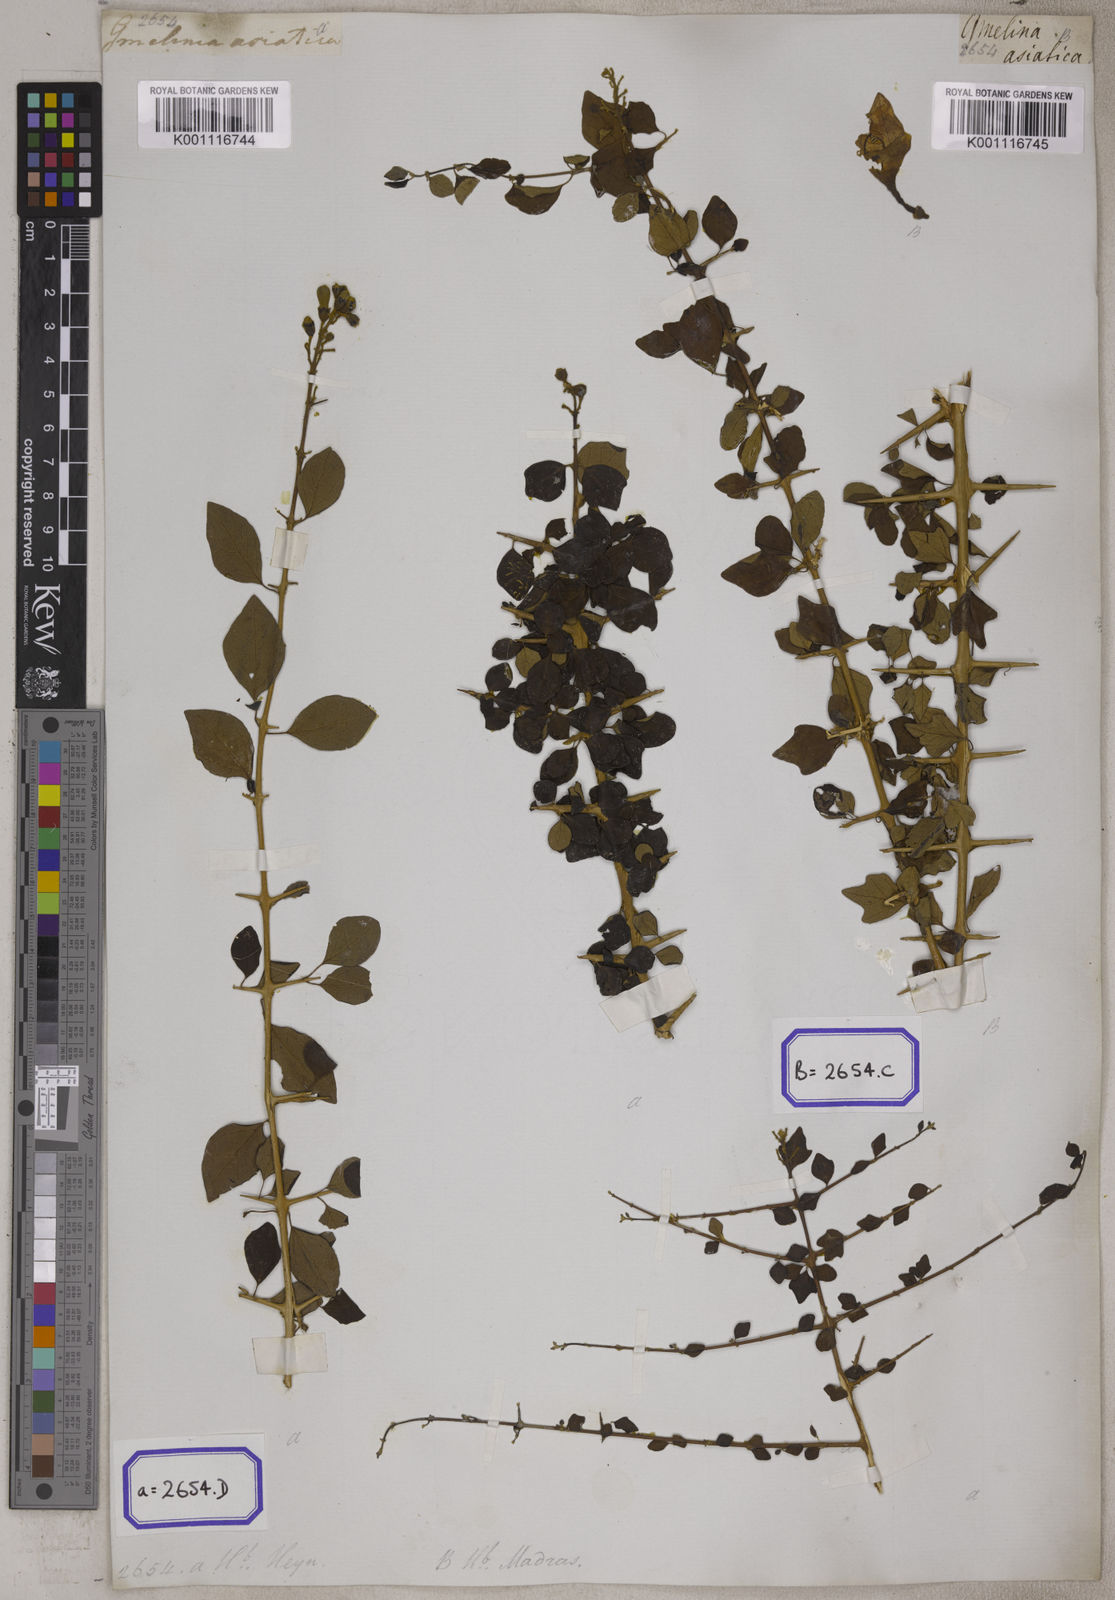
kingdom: Plantae
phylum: Tracheophyta
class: Magnoliopsida
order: Lamiales
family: Lamiaceae
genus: Gmelina
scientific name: Gmelina asiatica
